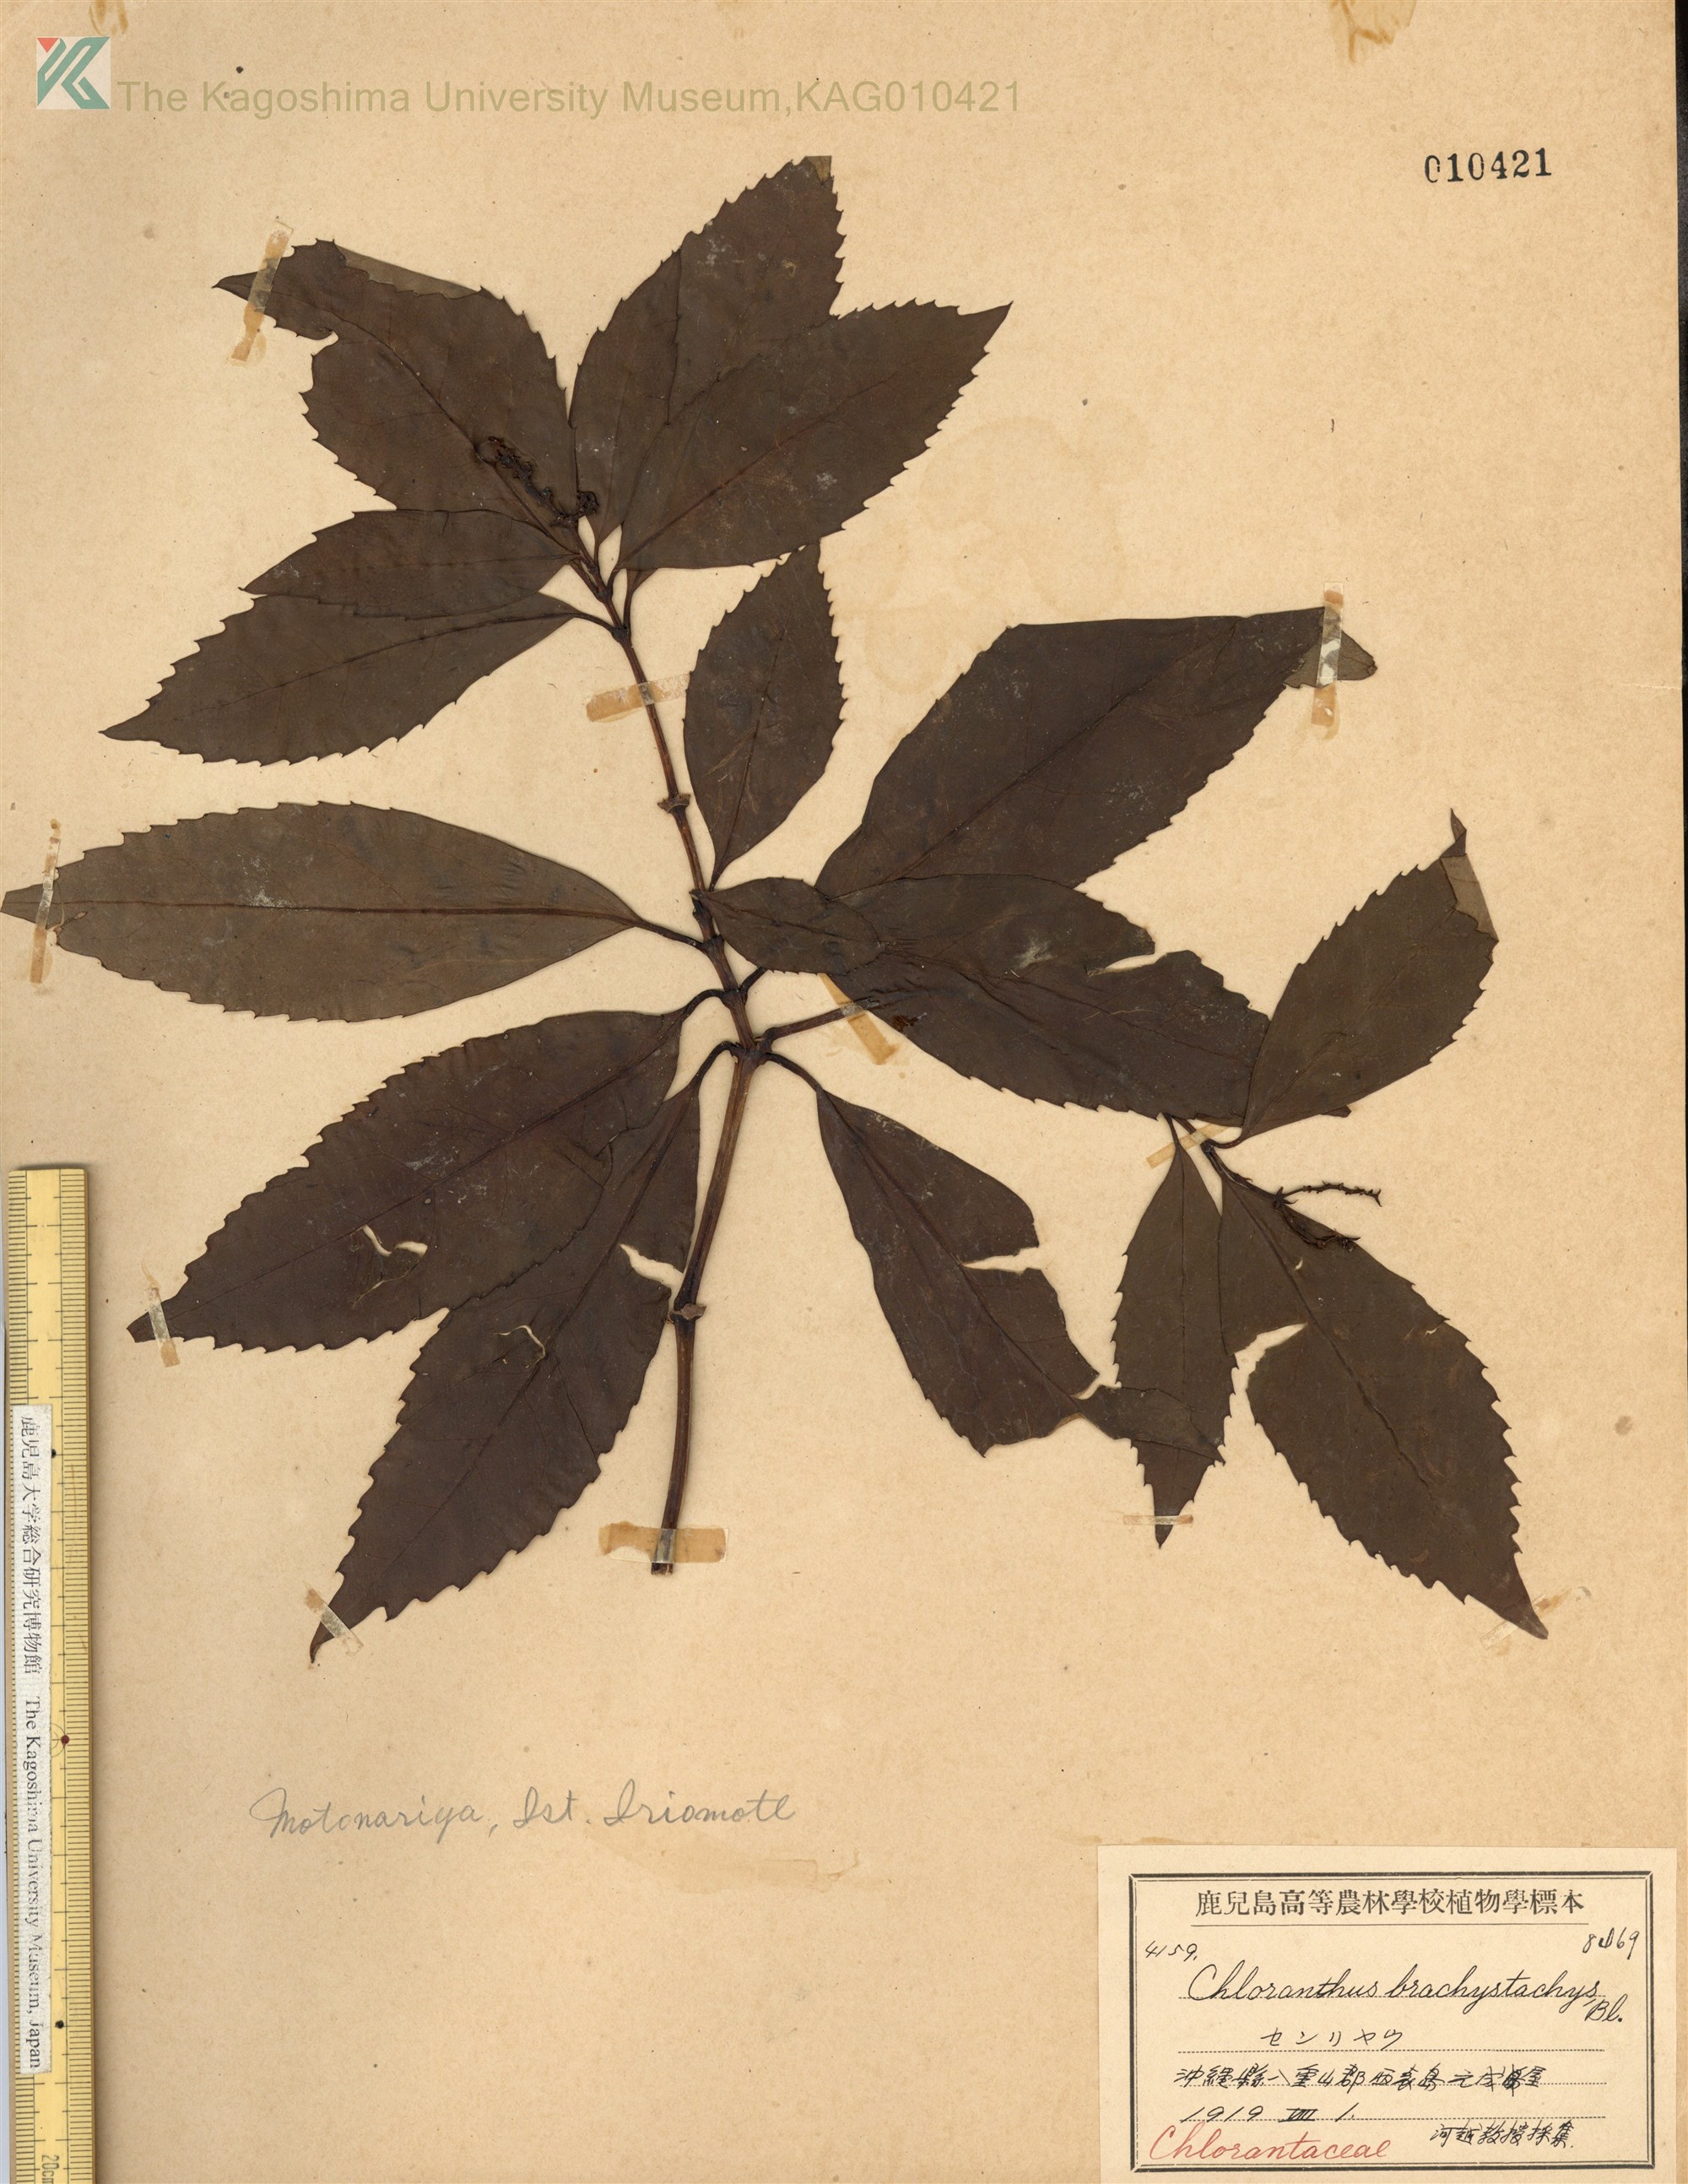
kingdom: Plantae
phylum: Tracheophyta
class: Magnoliopsida
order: Chloranthales
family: Chloranthaceae
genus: Sarcandra
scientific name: Sarcandra glabra
